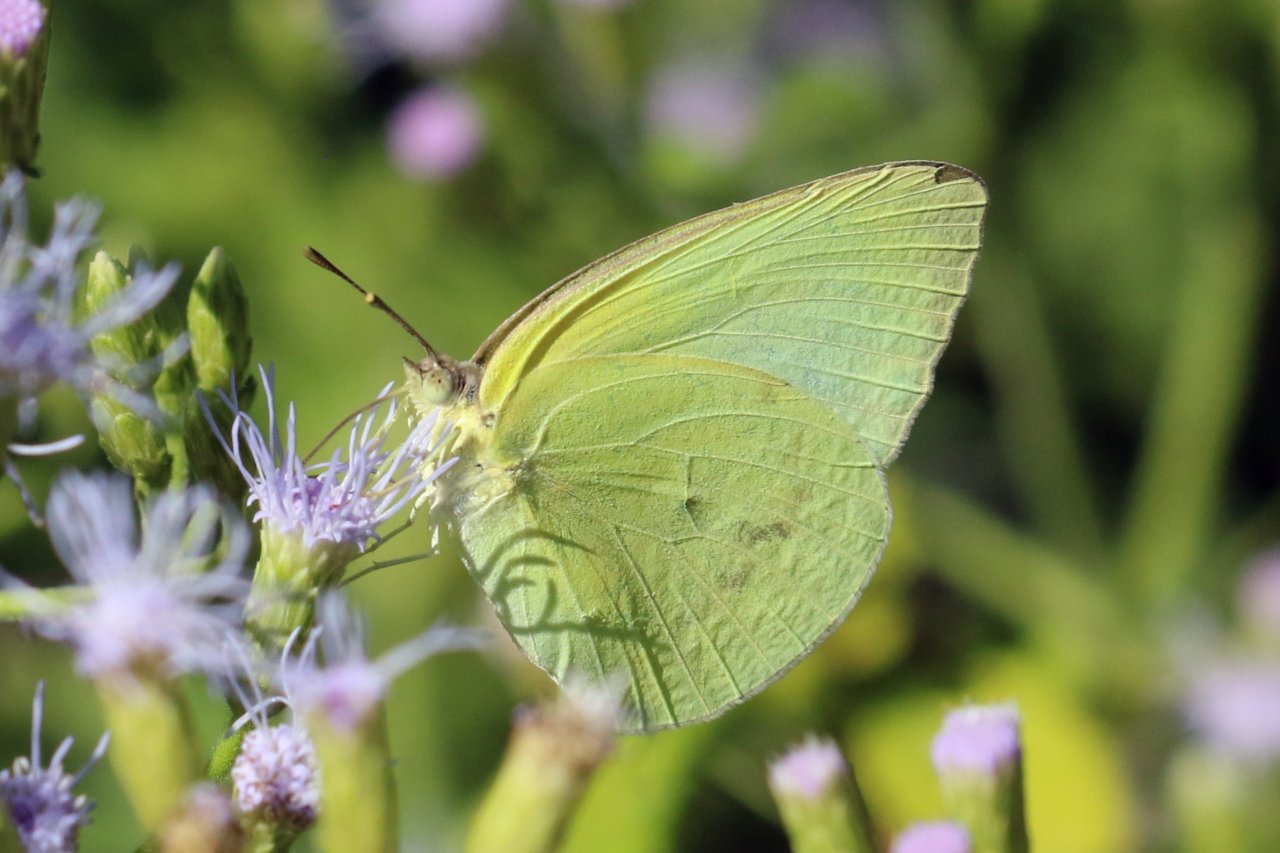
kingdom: Animalia
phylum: Arthropoda
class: Insecta
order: Lepidoptera
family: Pieridae
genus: Aphrissa
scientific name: Aphrissa statira
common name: Statira Sulphur
